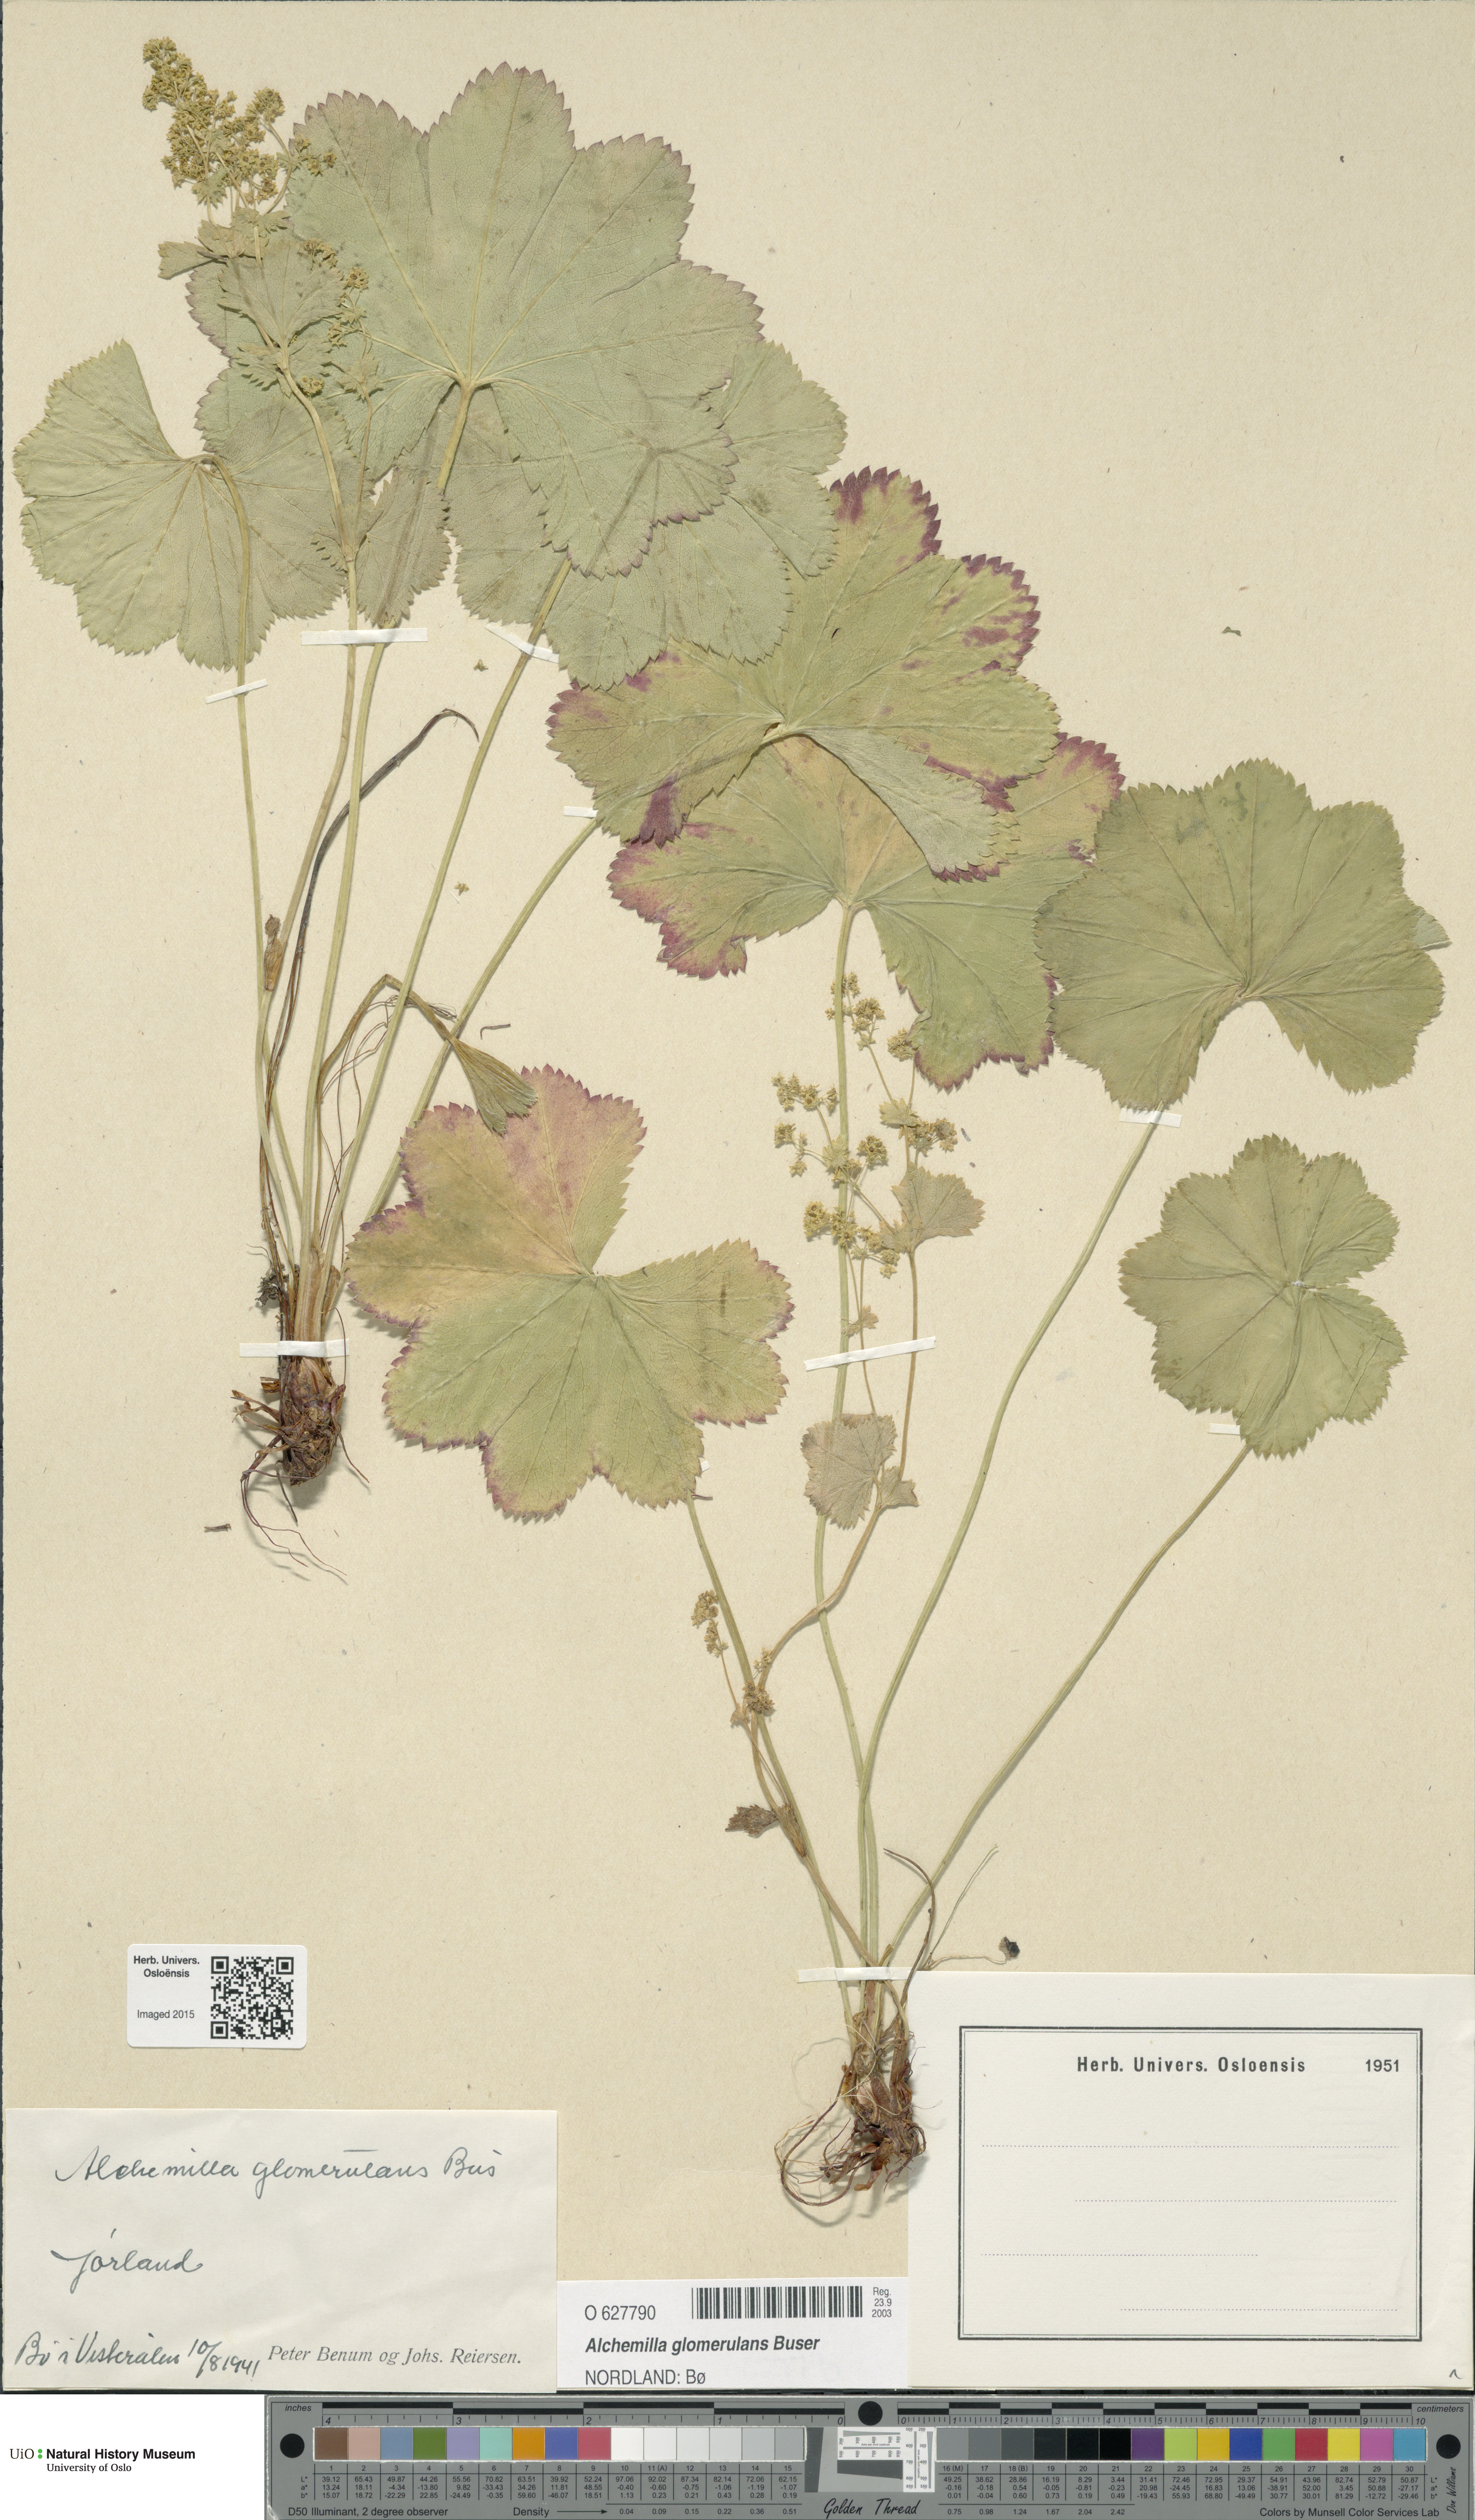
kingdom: Plantae
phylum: Tracheophyta
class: Magnoliopsida
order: Rosales
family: Rosaceae
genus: Alchemilla
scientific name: Alchemilla glomerulans
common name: Clustered lady's mantle
